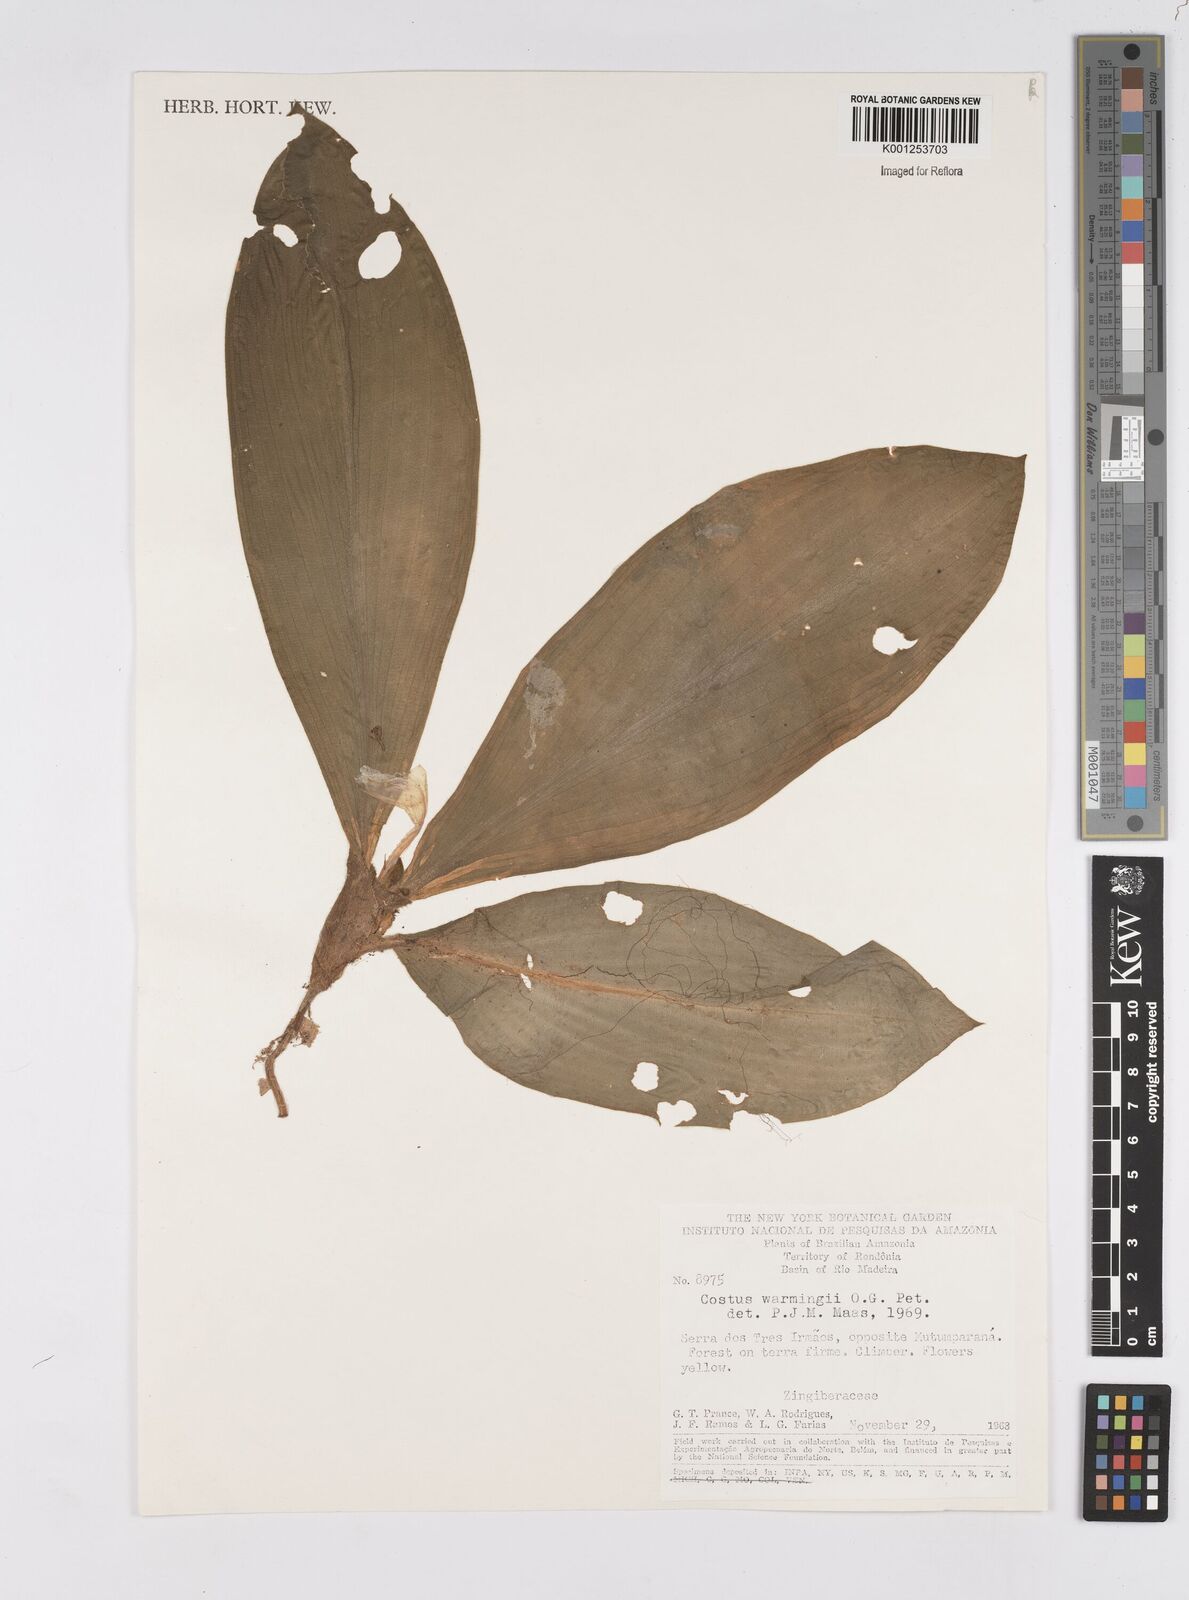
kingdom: Plantae
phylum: Tracheophyta
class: Liliopsida
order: Zingiberales
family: Costaceae
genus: Chamaecostus
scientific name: Chamaecostus subsessilis
